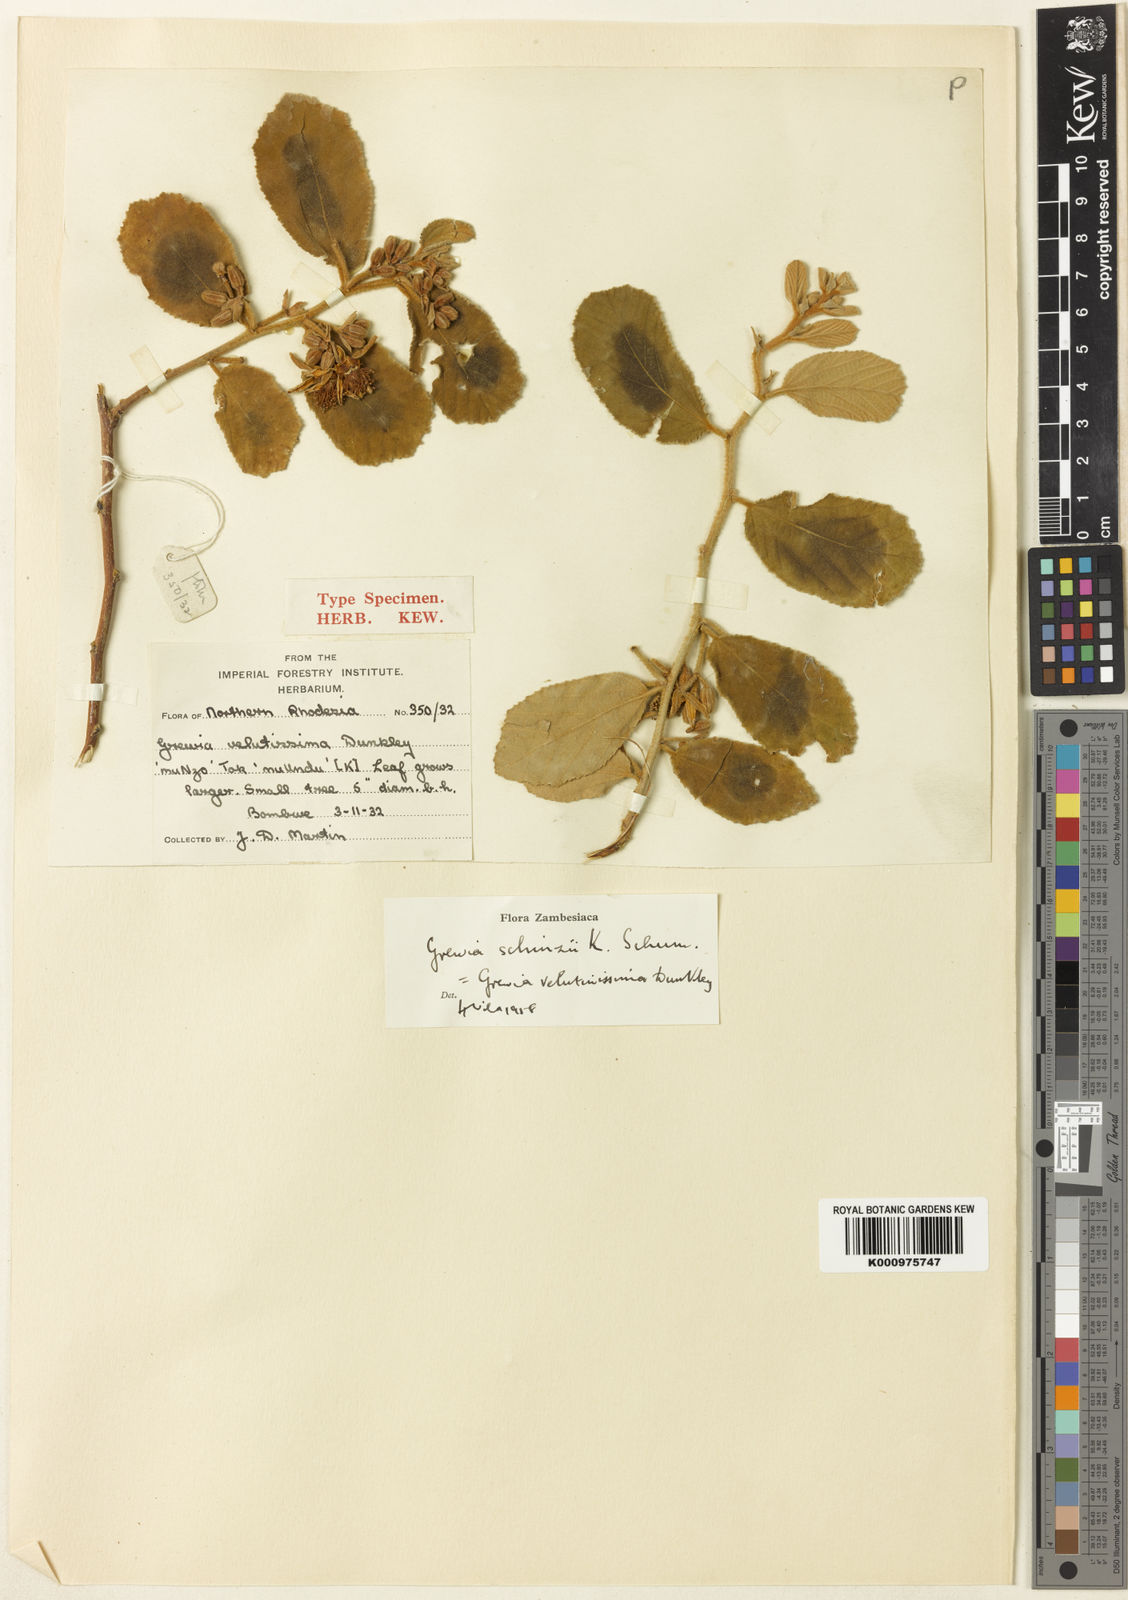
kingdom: Plantae
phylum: Tracheophyta
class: Magnoliopsida
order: Malvales
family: Malvaceae
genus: Grewia
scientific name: Grewia schinzii
